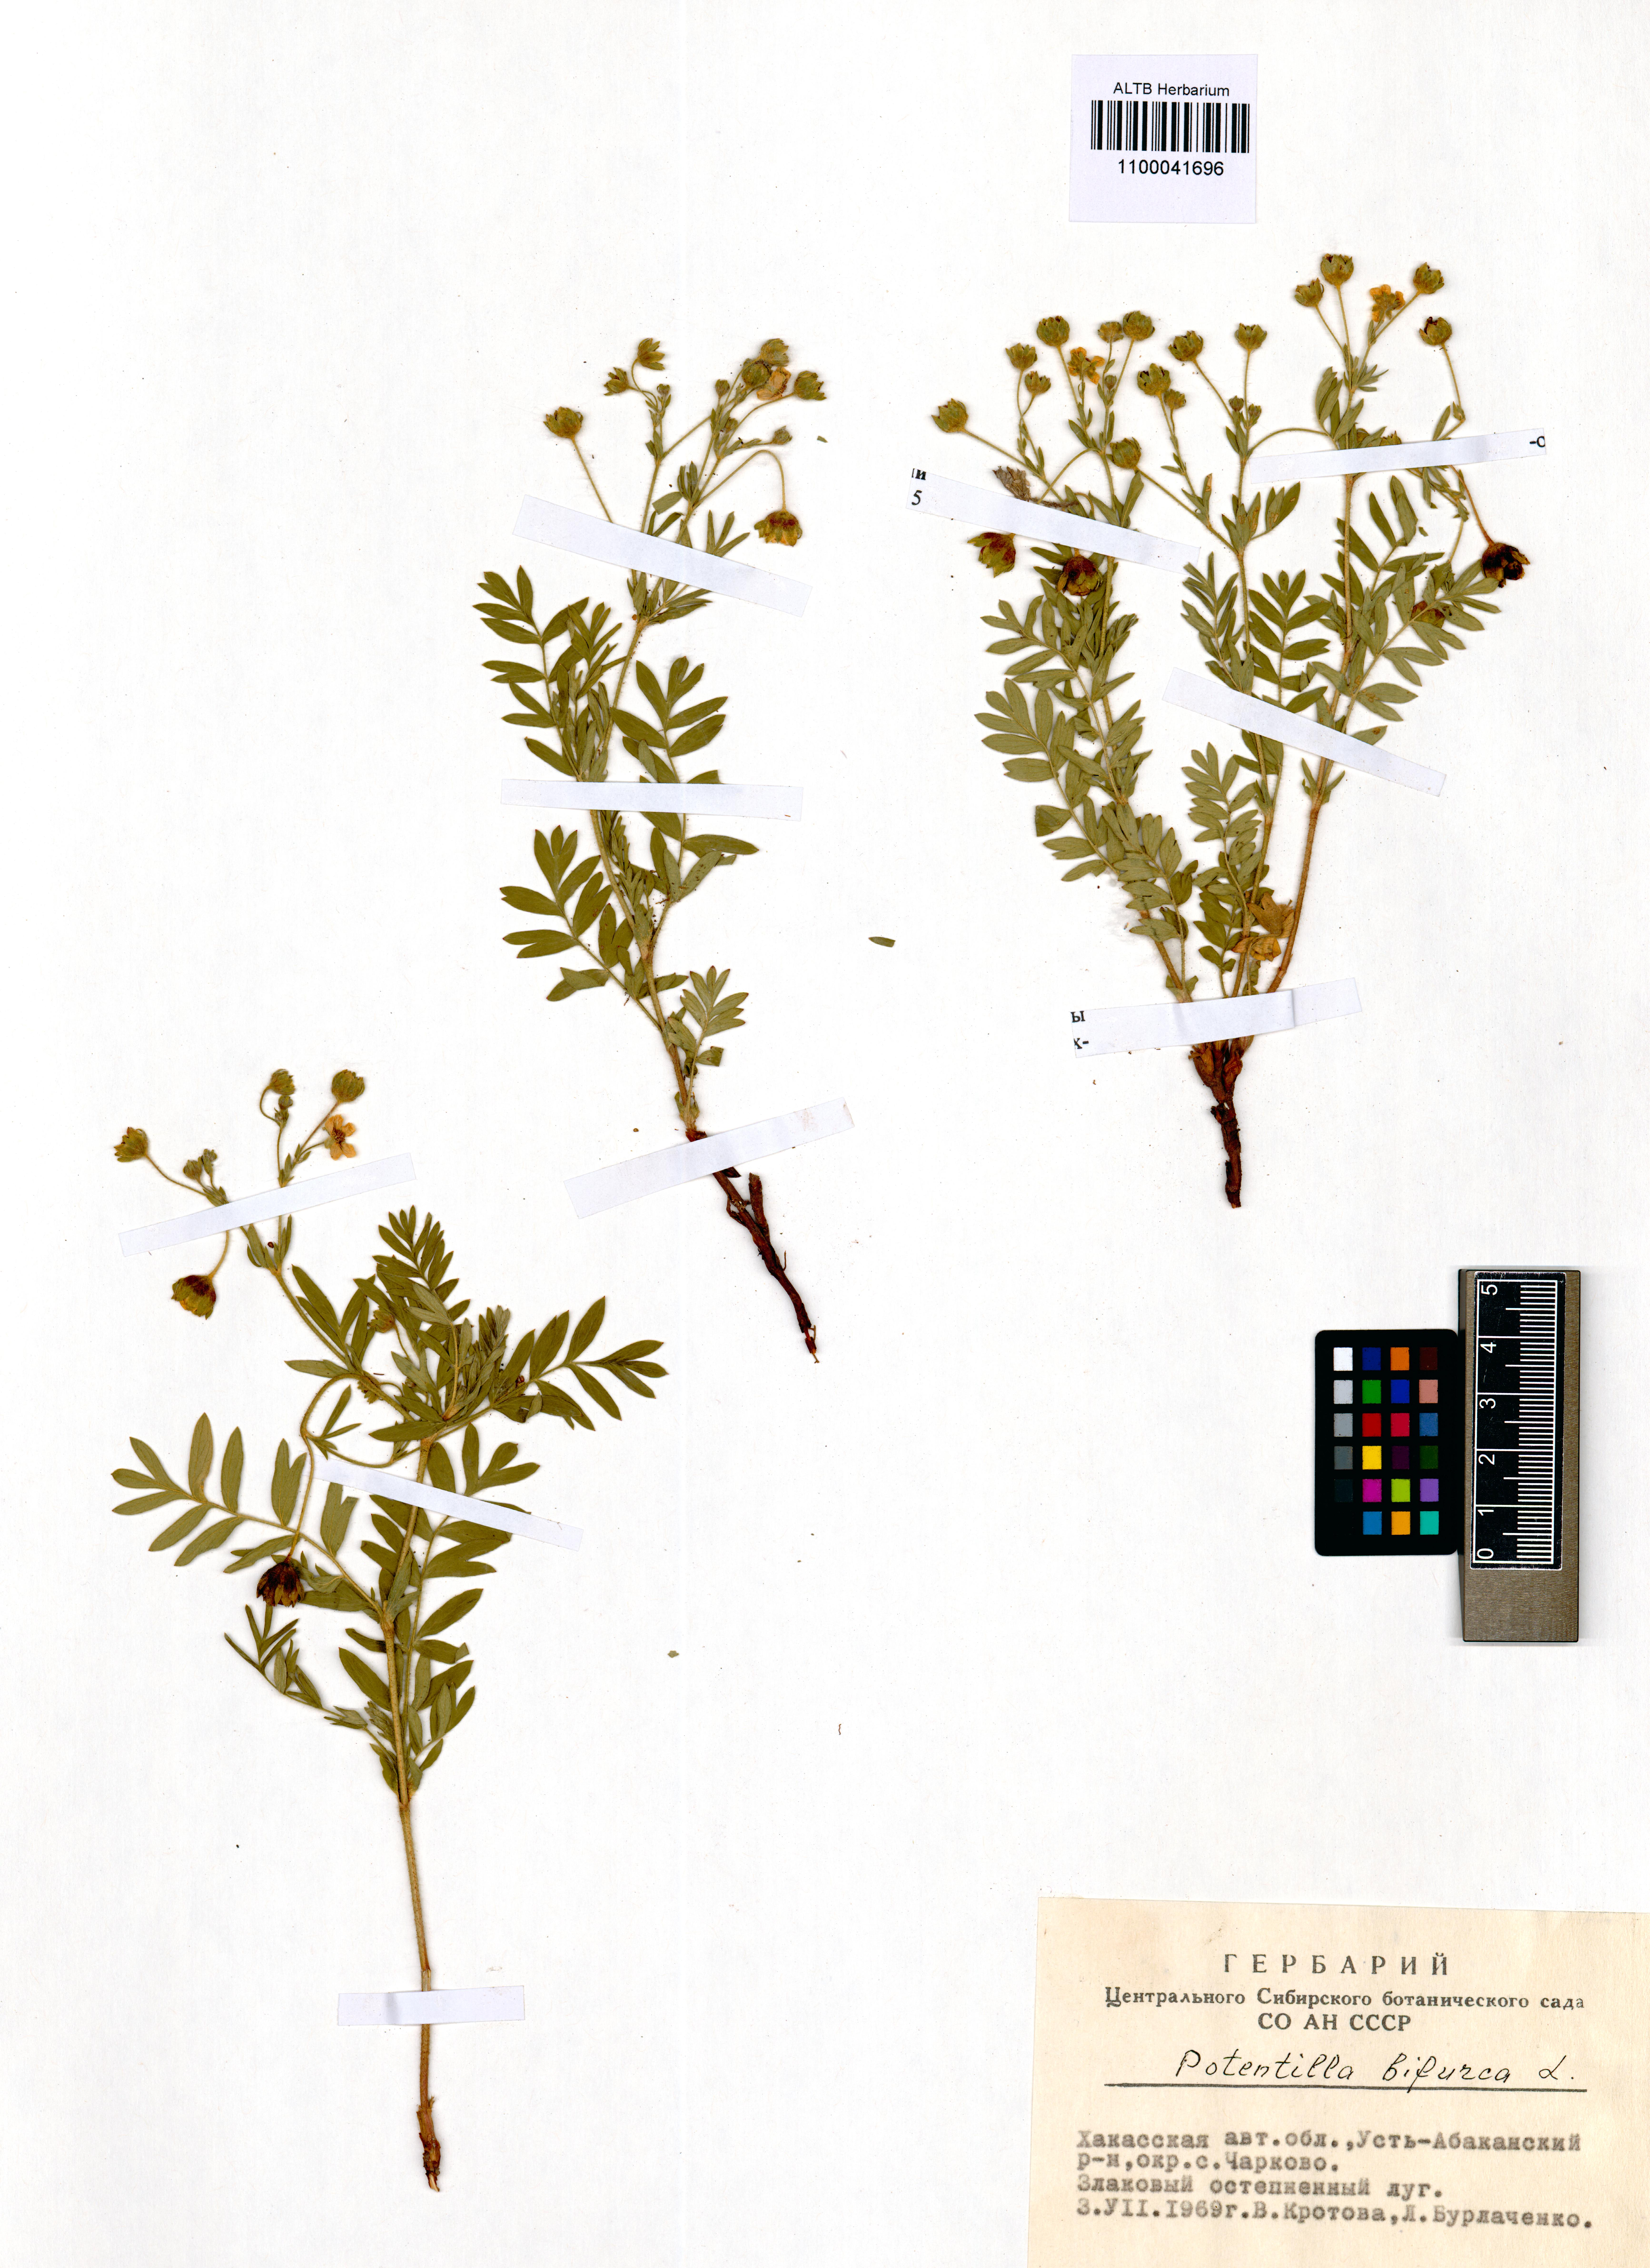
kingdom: Plantae
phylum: Tracheophyta
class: Magnoliopsida
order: Rosales
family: Rosaceae
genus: Sibbaldianthe
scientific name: Sibbaldianthe bifurca
